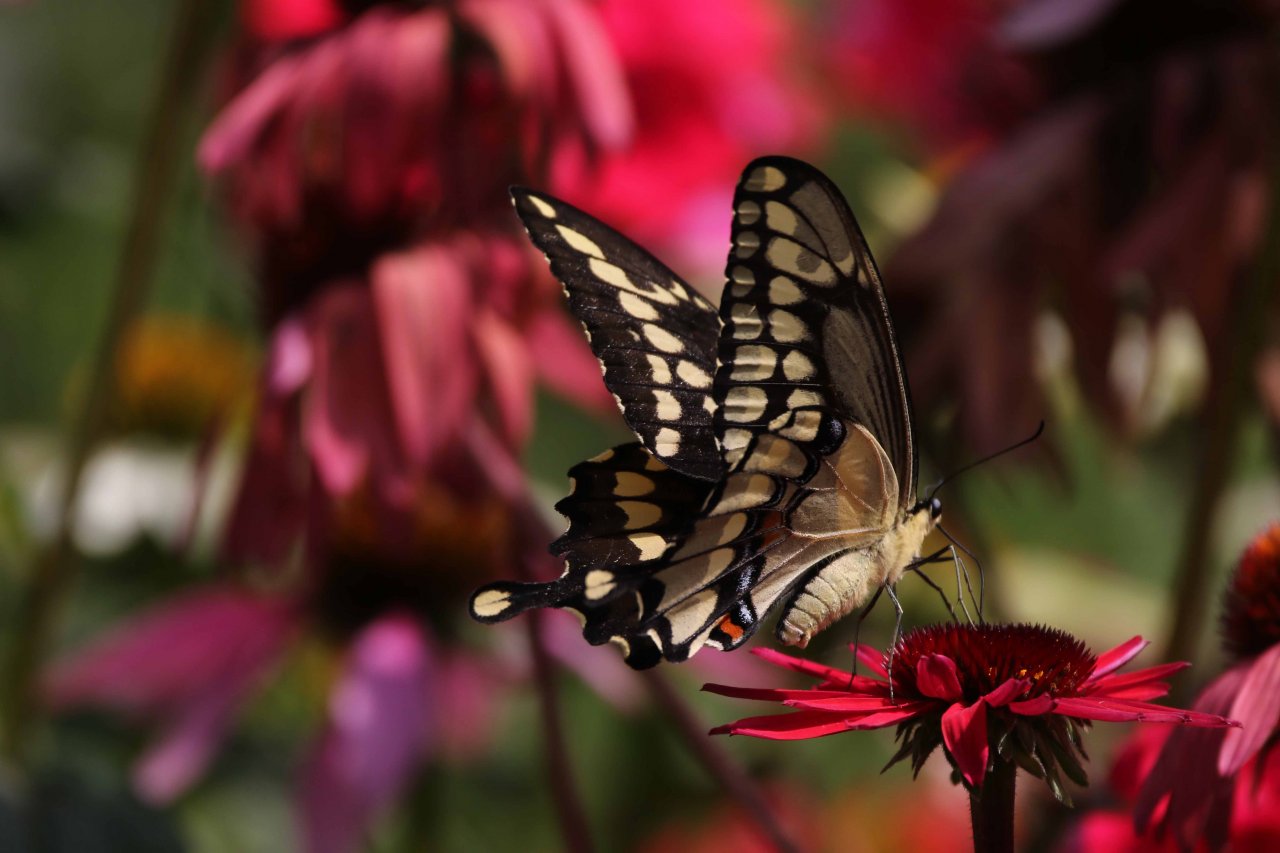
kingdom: Animalia
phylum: Arthropoda
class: Insecta
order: Lepidoptera
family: Papilionidae
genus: Papilio
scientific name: Papilio cresphontes
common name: Eastern Giant Swallowtail
